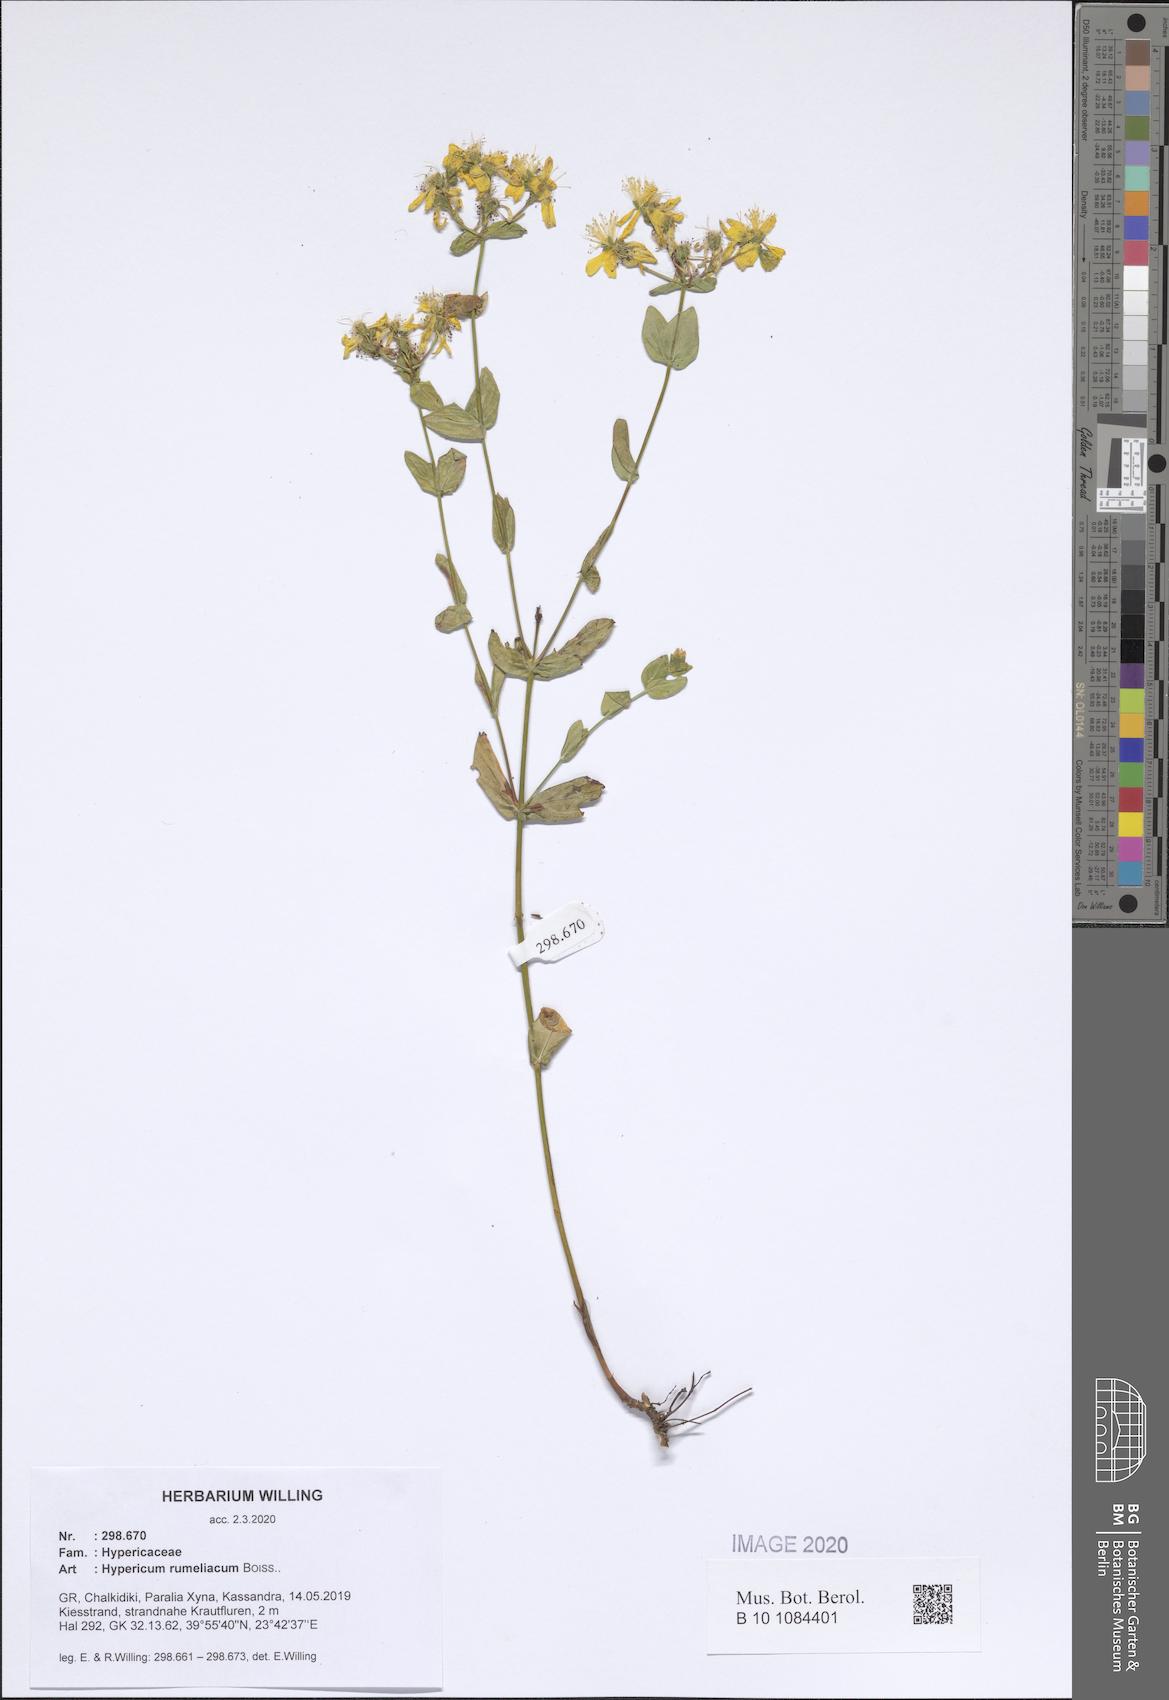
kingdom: Plantae
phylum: Tracheophyta
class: Magnoliopsida
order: Malpighiales
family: Hypericaceae
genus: Hypericum
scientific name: Hypericum rumeliacum
